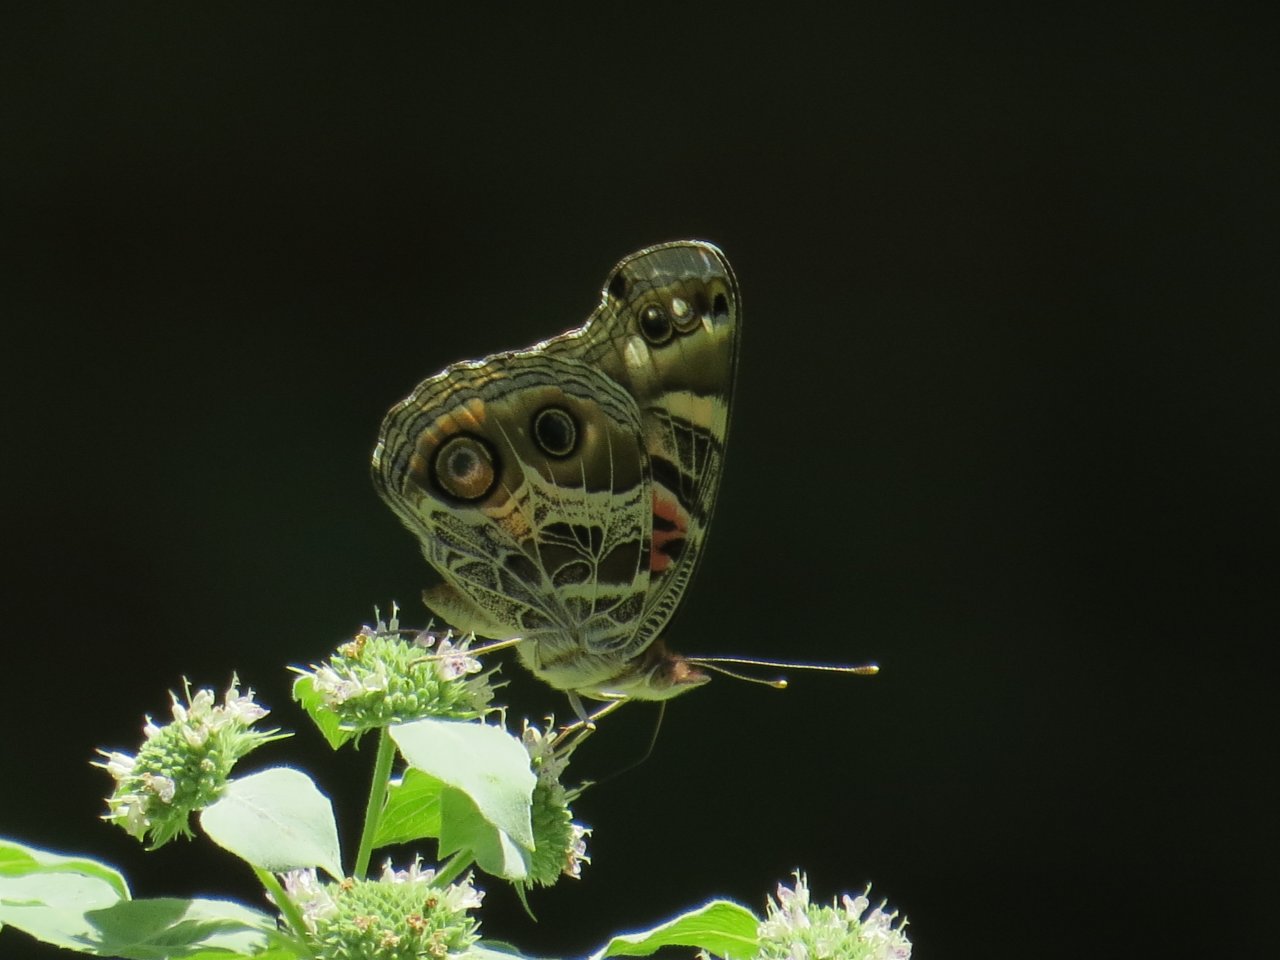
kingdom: Animalia
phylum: Arthropoda
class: Insecta
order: Lepidoptera
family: Nymphalidae
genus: Vanessa
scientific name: Vanessa virginiensis
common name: American Lady
